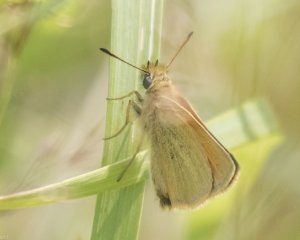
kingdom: Animalia
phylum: Arthropoda
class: Insecta
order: Lepidoptera
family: Hesperiidae
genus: Thymelicus
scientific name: Thymelicus lineola
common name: European Skipper
